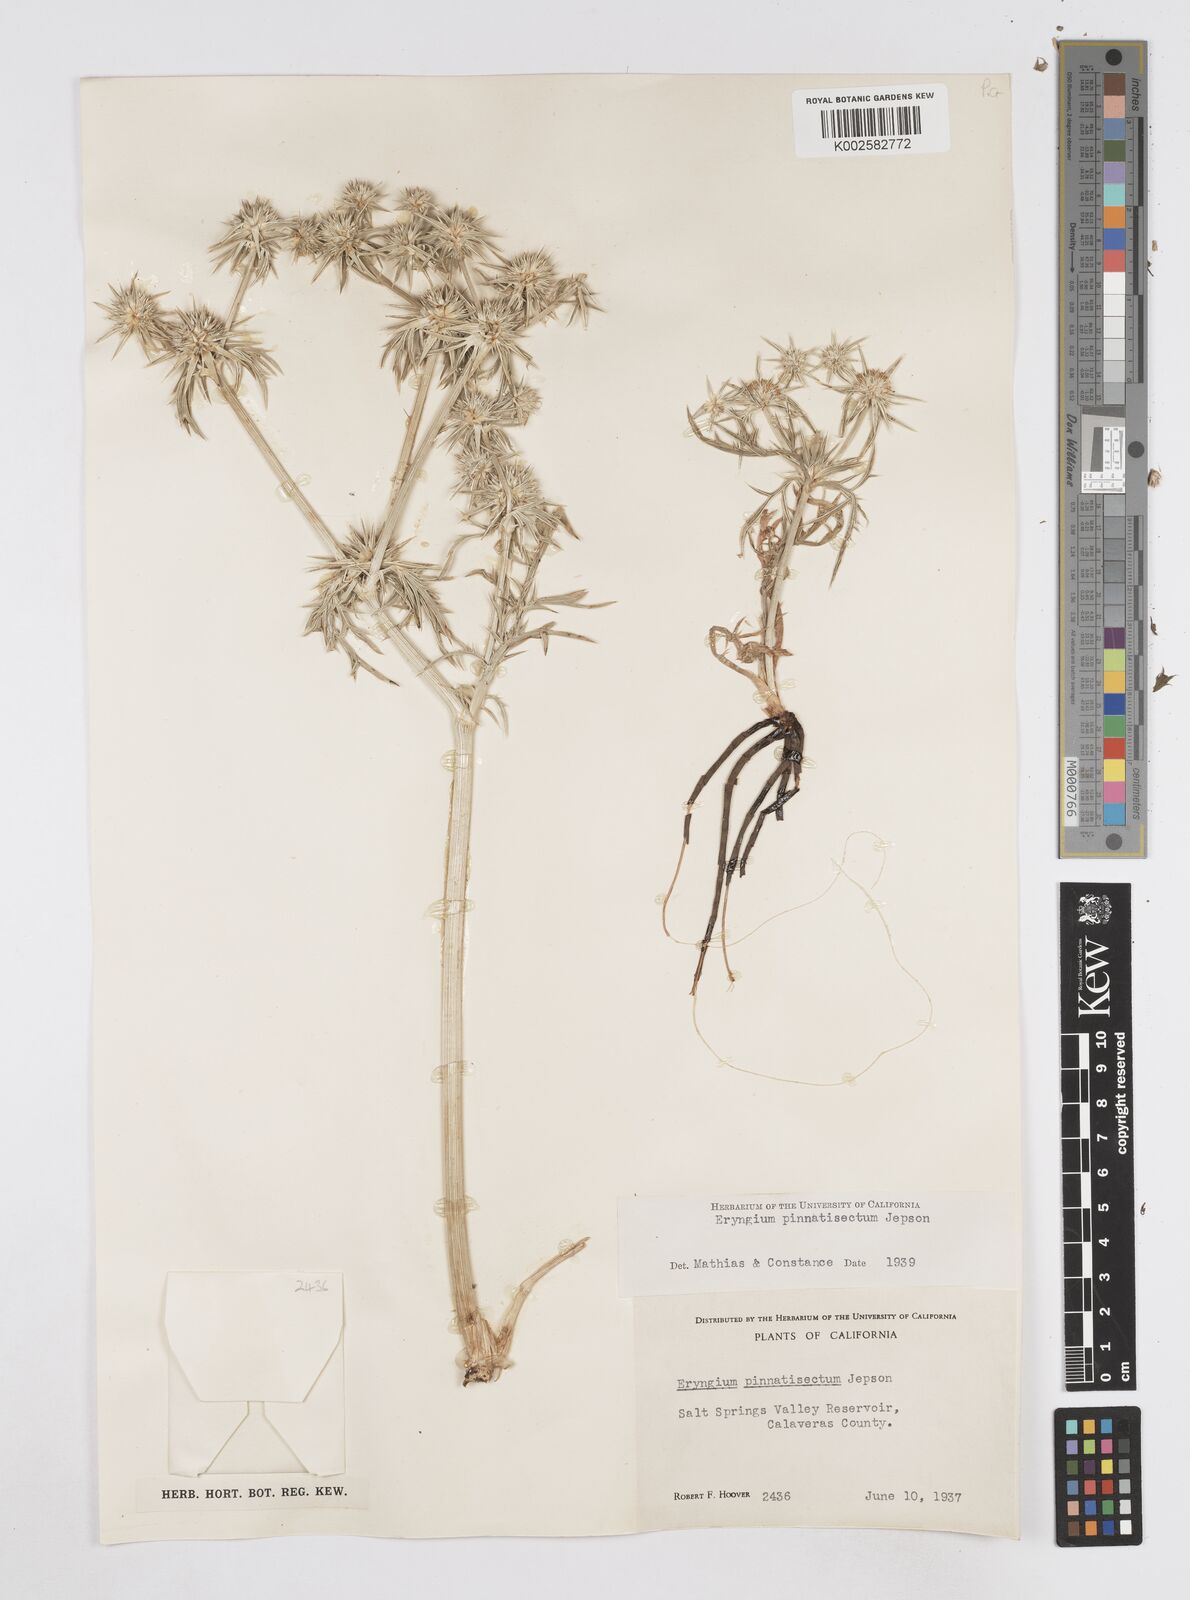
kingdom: Plantae
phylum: Tracheophyta
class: Magnoliopsida
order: Apiales
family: Apiaceae
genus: Eryngium
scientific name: Eryngium pinnatisectum
